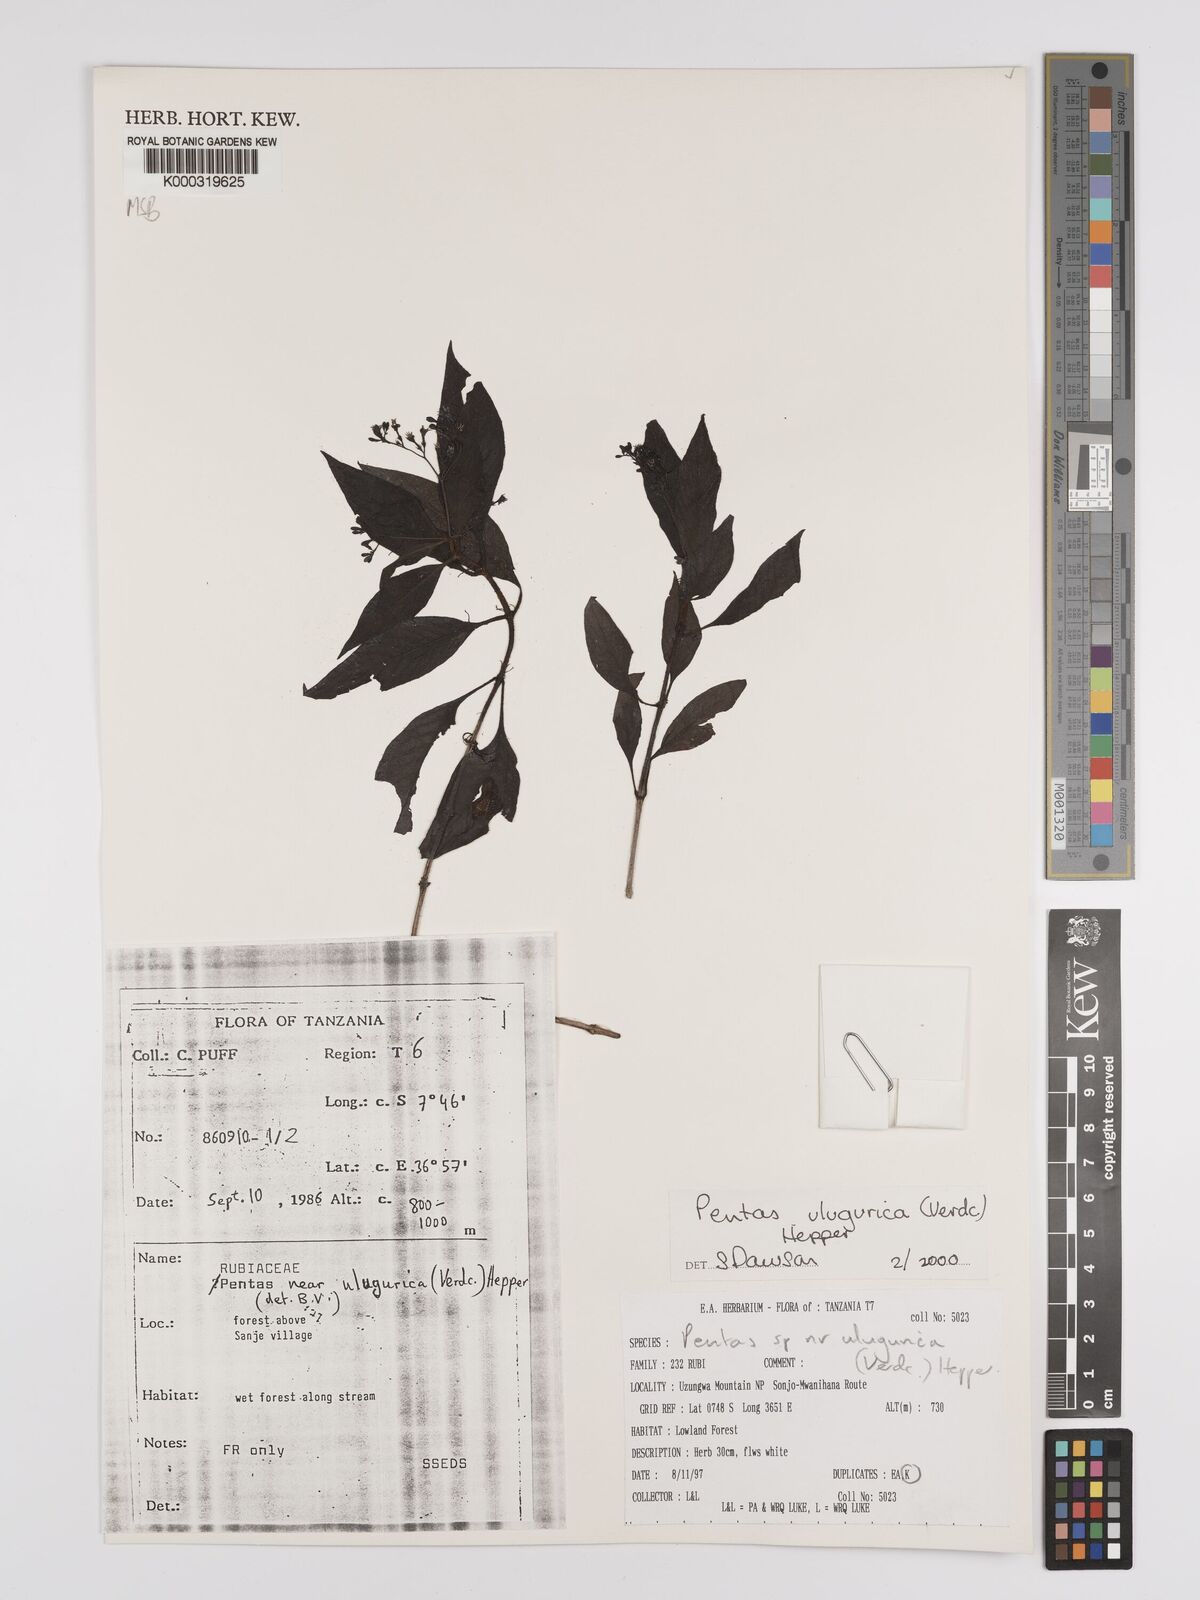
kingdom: Plantae
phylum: Tracheophyta
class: Magnoliopsida
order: Gentianales
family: Rubiaceae
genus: Phyllopentas
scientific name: Phyllopentas ulugurica
